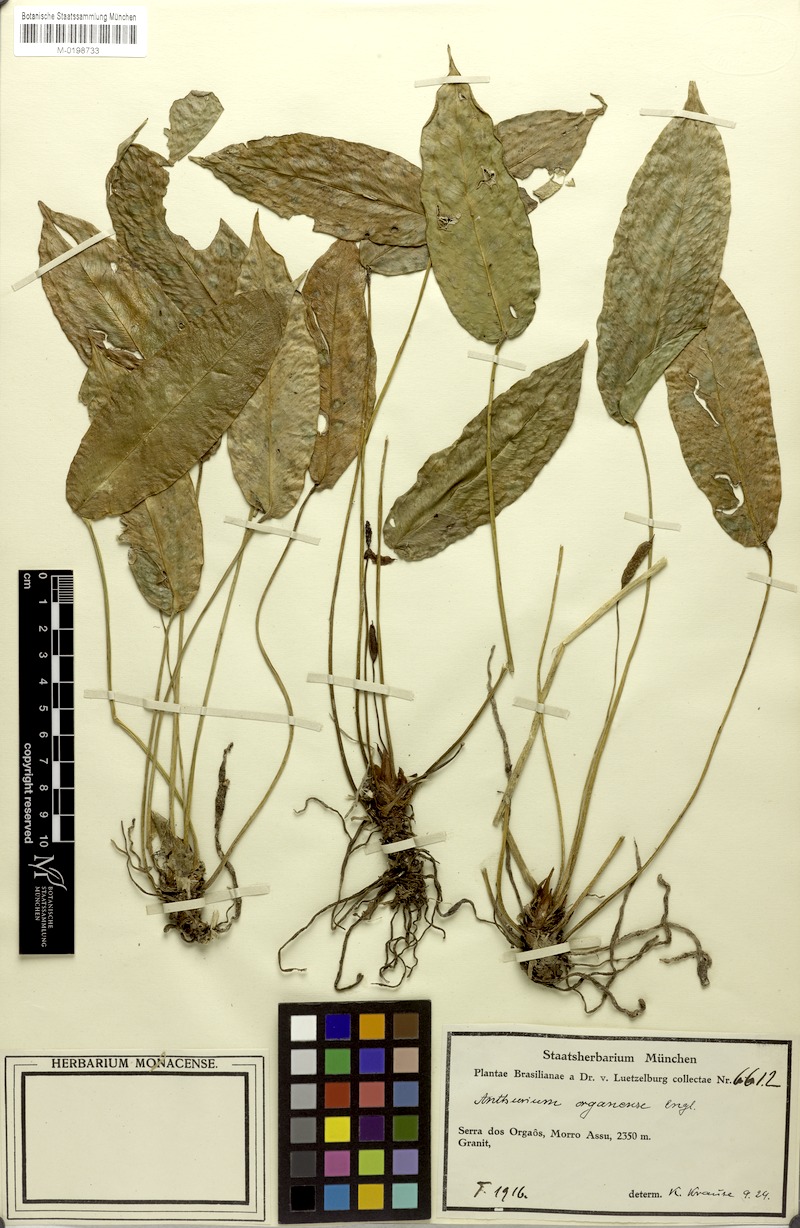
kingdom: Plantae
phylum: Tracheophyta
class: Liliopsida
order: Alismatales
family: Araceae
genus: Anthurium
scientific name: Anthurium organense
